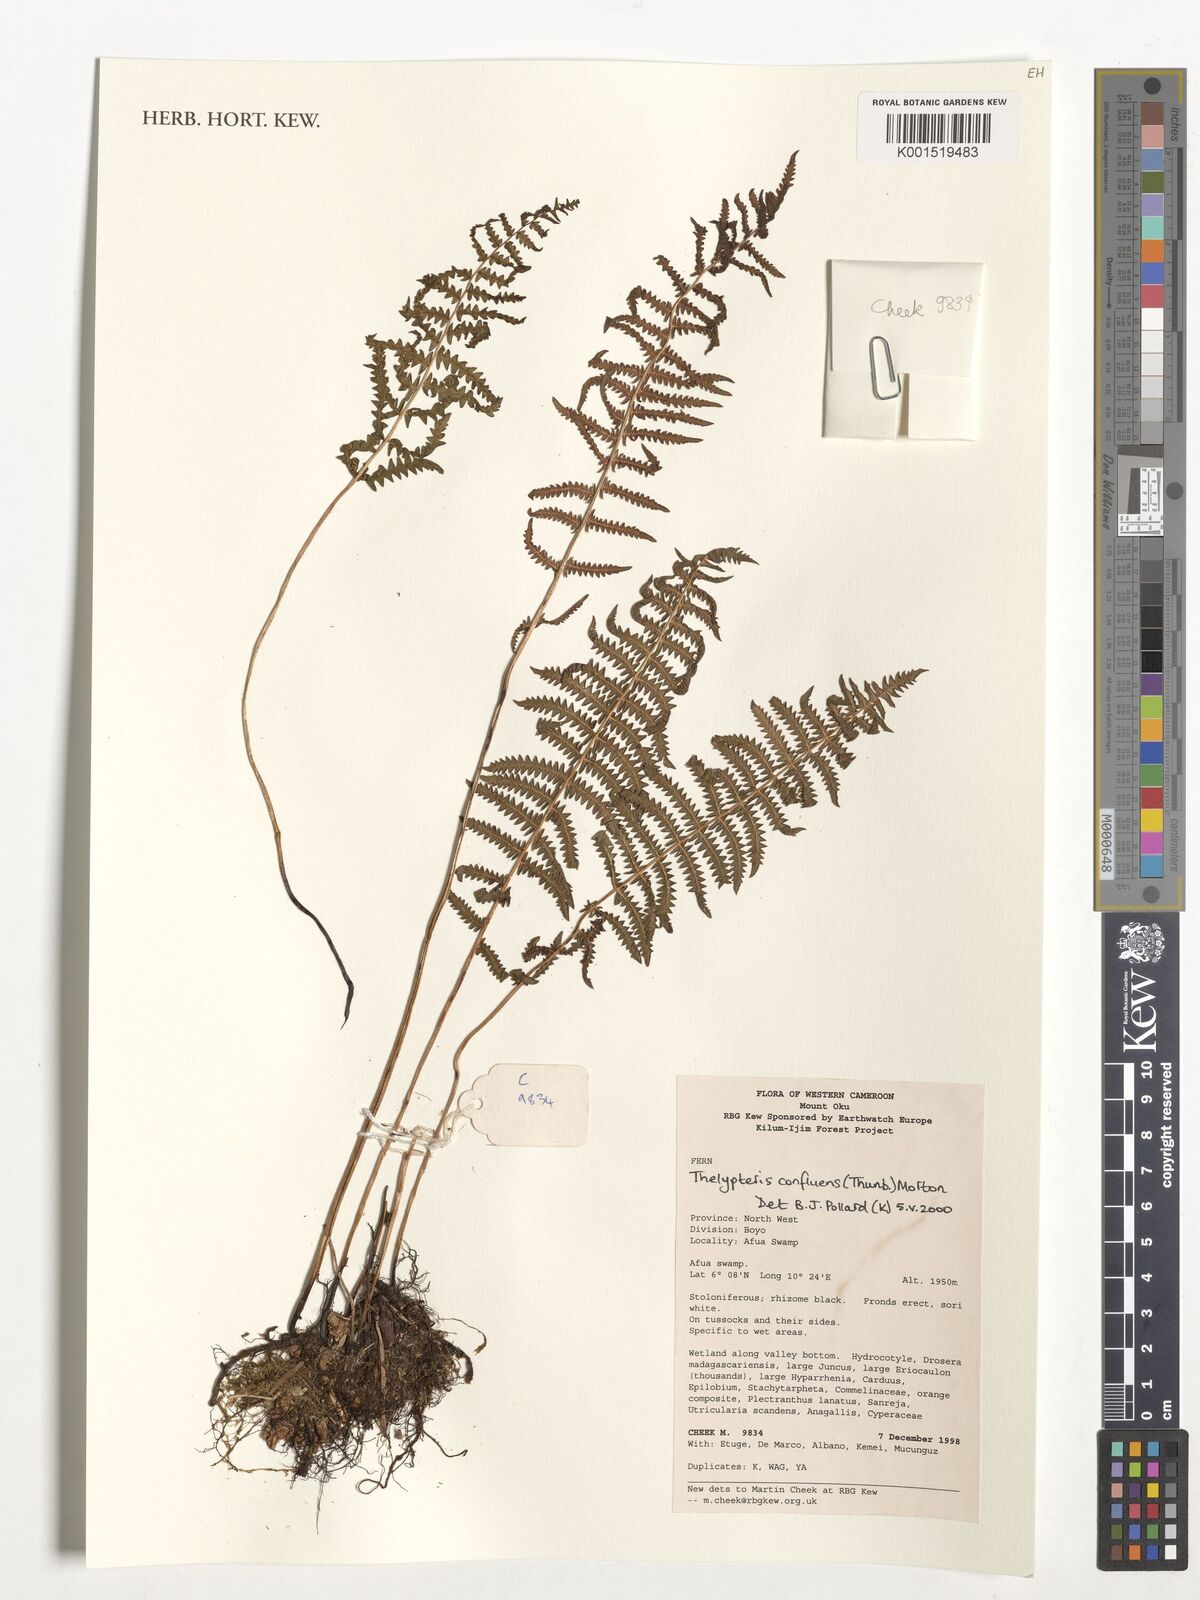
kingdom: Plantae
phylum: Tracheophyta
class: Polypodiopsida
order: Polypodiales
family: Thelypteridaceae
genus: Thelypteris
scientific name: Thelypteris confluens
